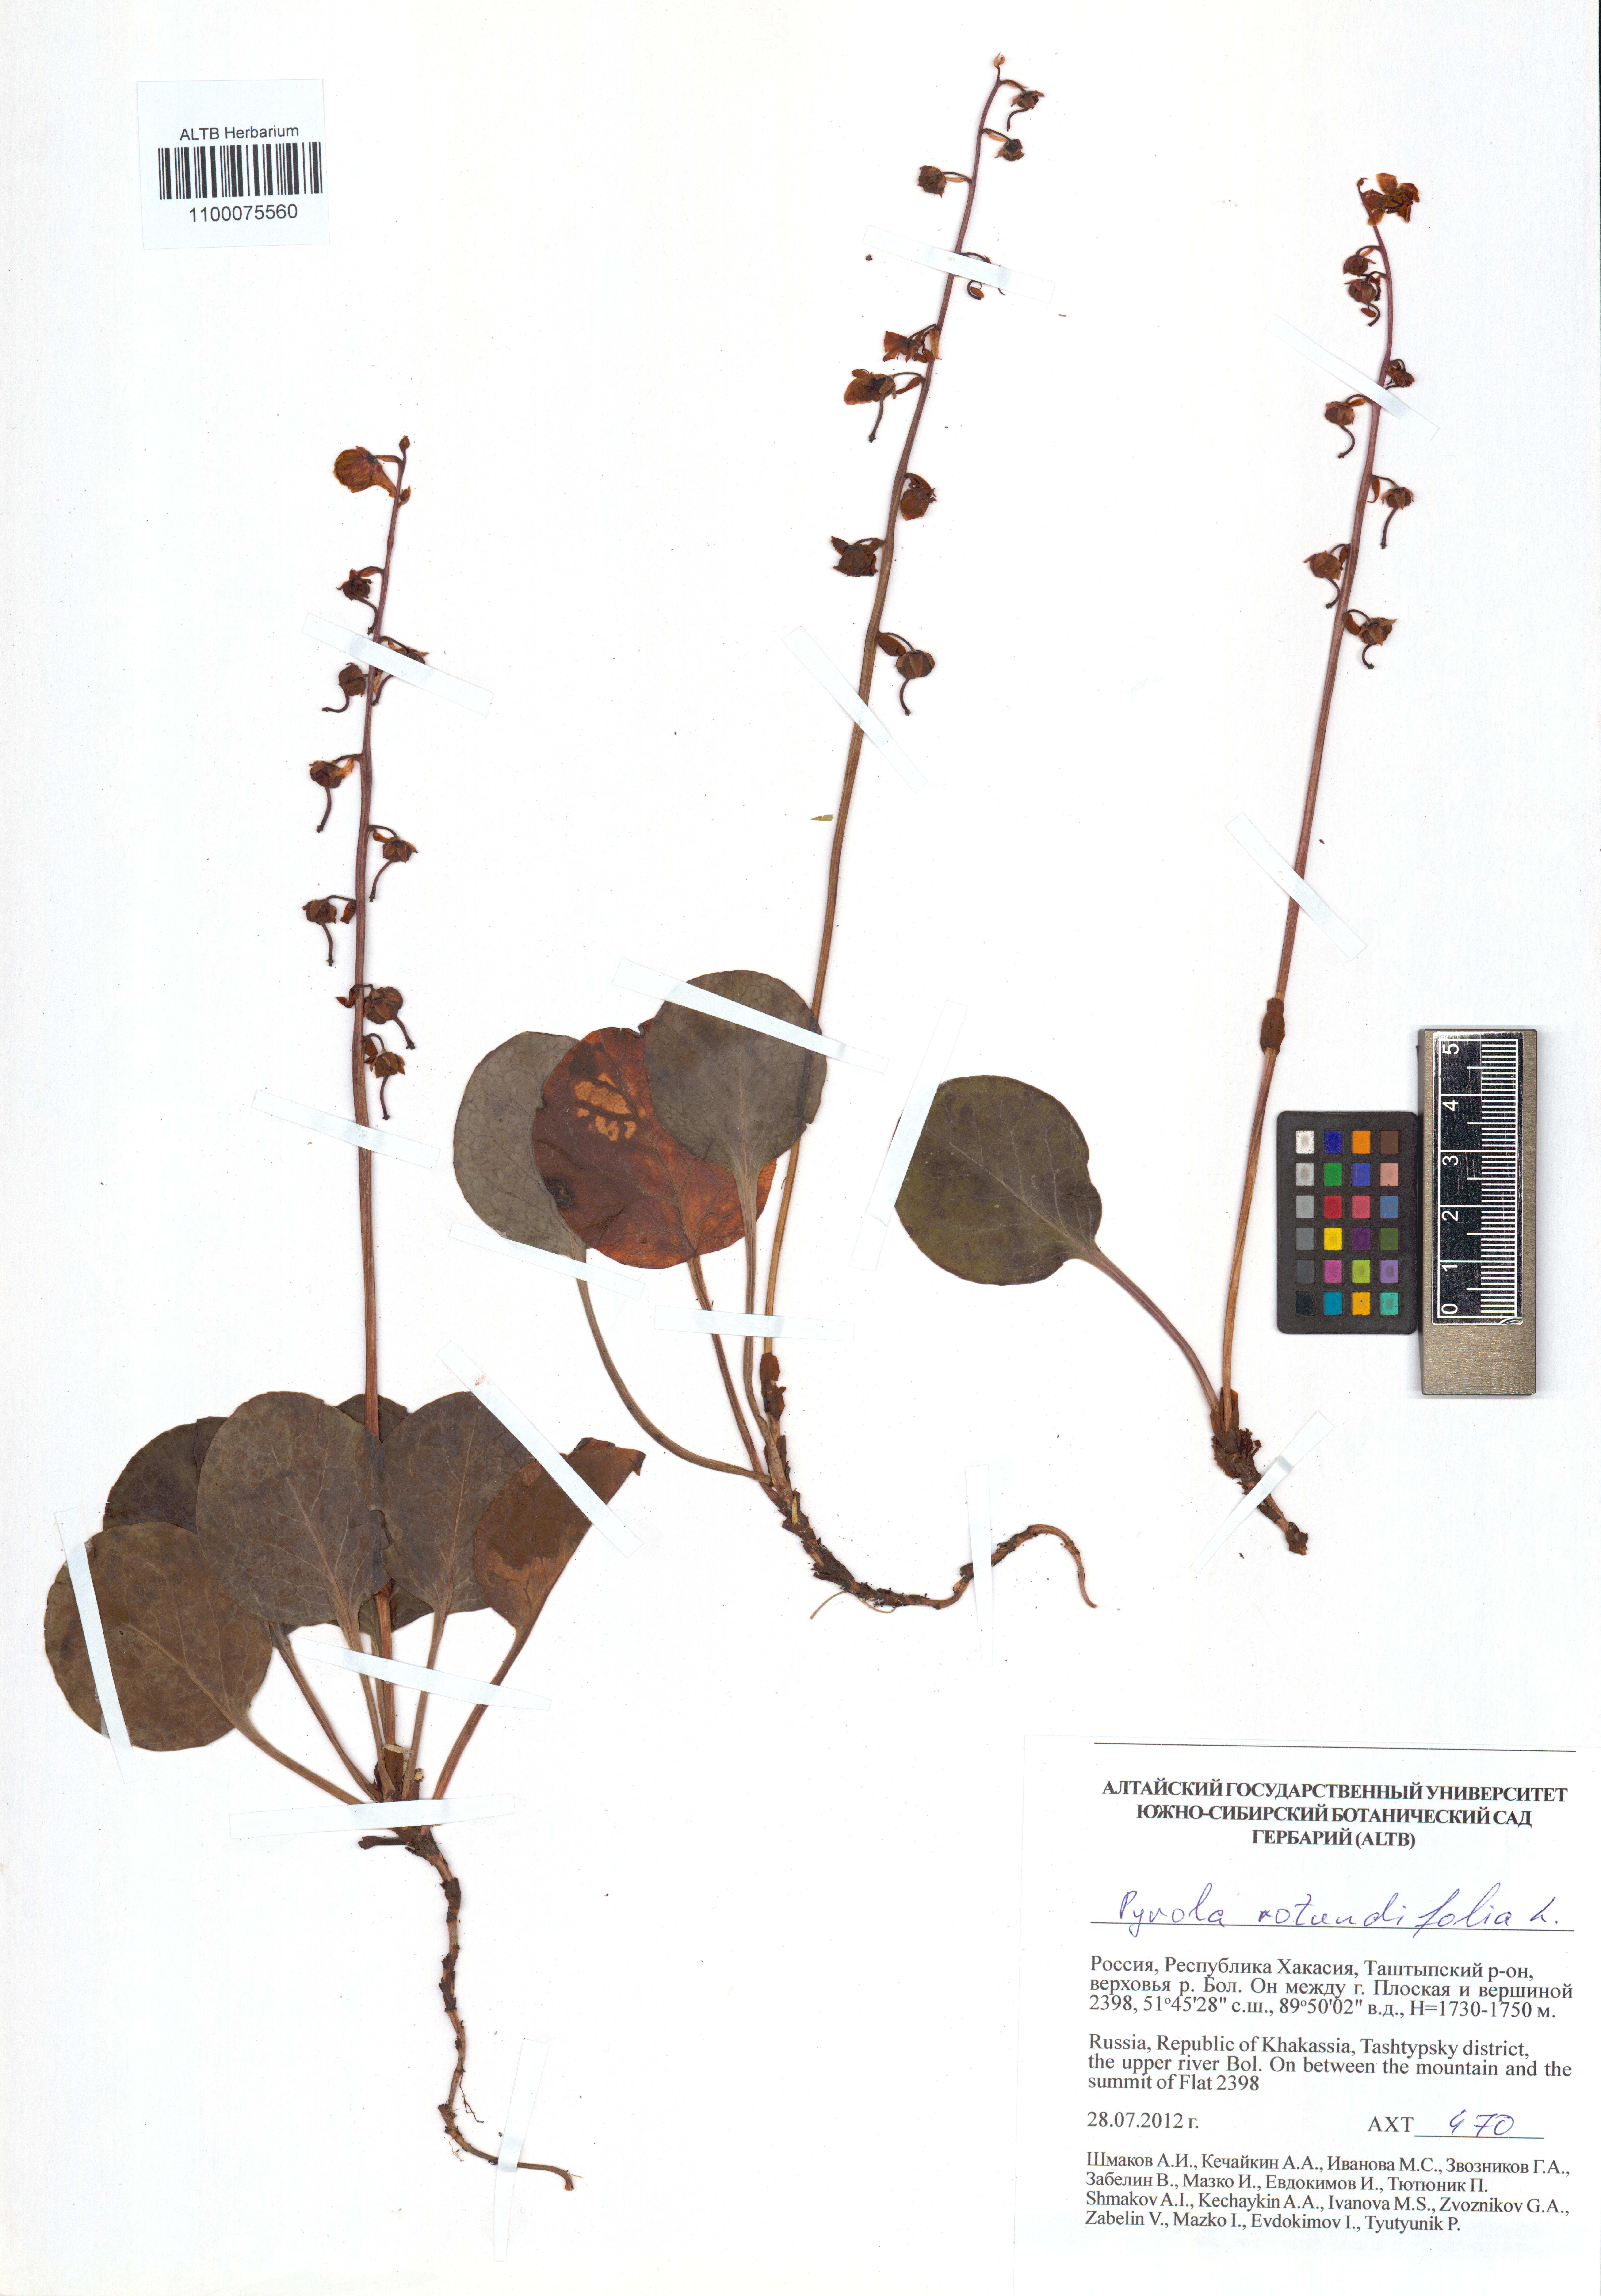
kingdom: Plantae
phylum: Tracheophyta
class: Magnoliopsida
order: Ericales
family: Ericaceae
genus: Pyrola
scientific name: Pyrola rotundifolia
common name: Round-leaved wintergreen
